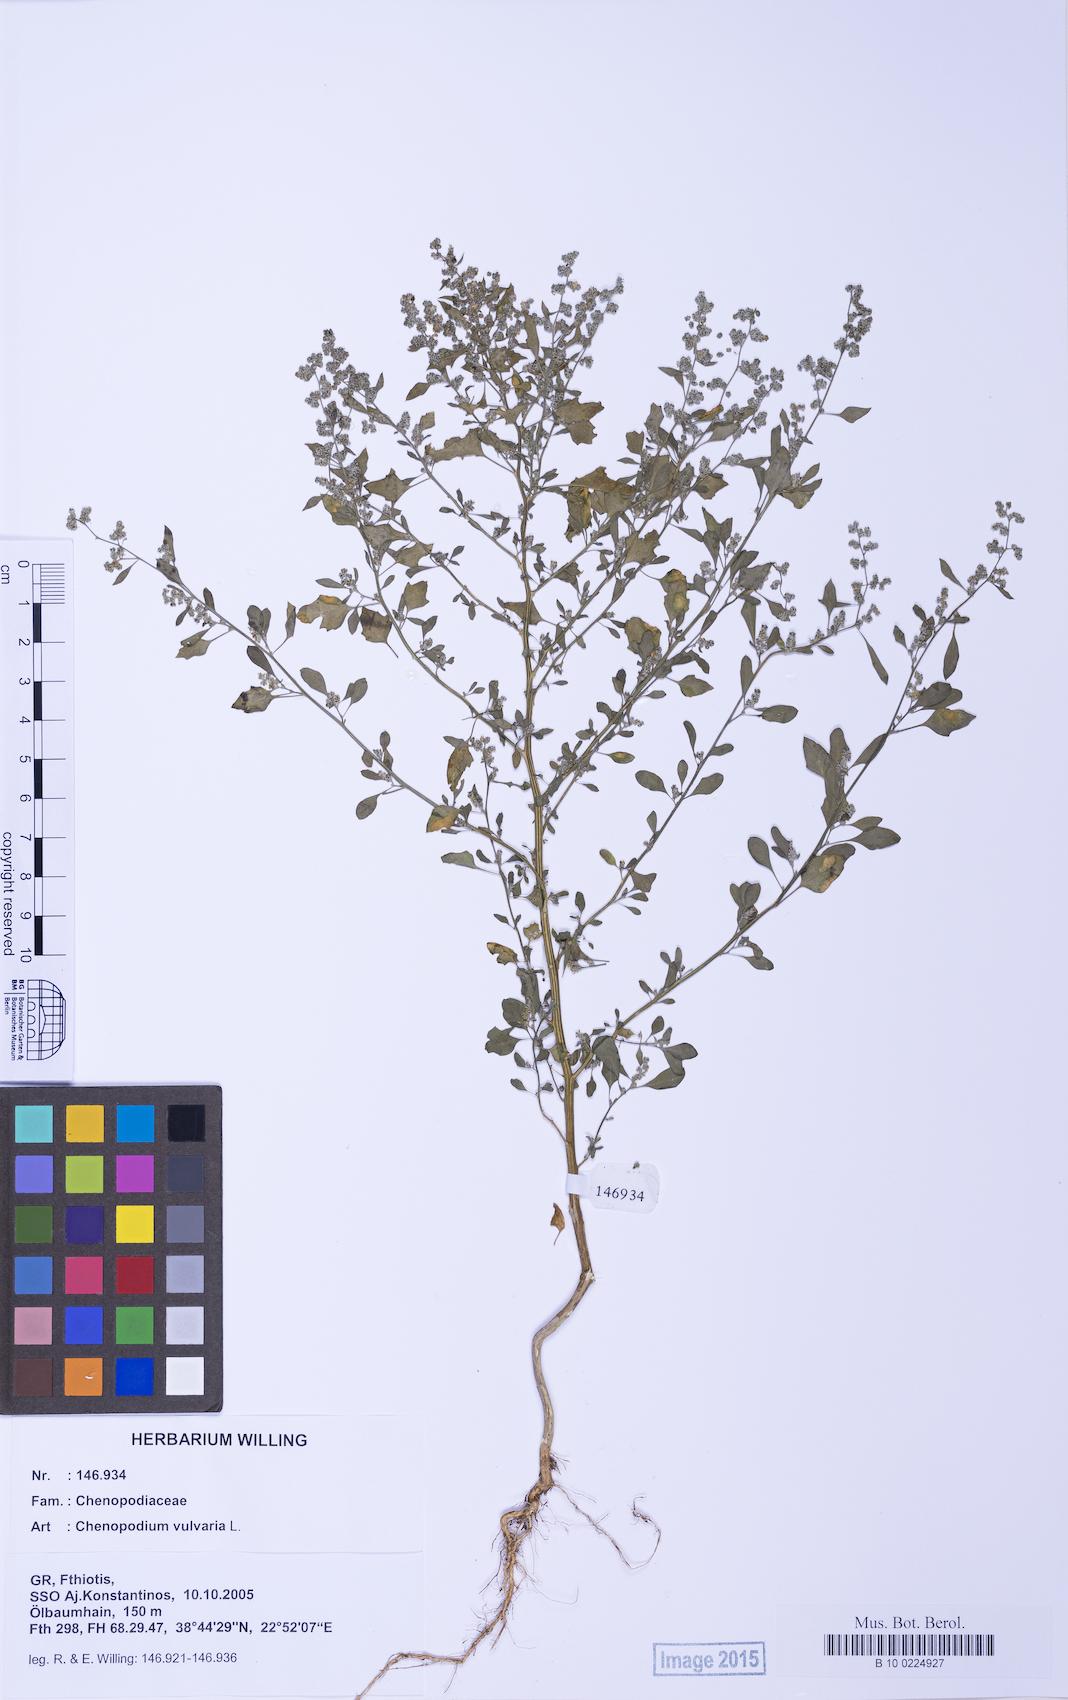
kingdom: Plantae
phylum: Tracheophyta
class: Magnoliopsida
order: Caryophyllales
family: Amaranthaceae
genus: Chenopodium
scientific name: Chenopodium vulvaria
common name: Stinking goosefoot
